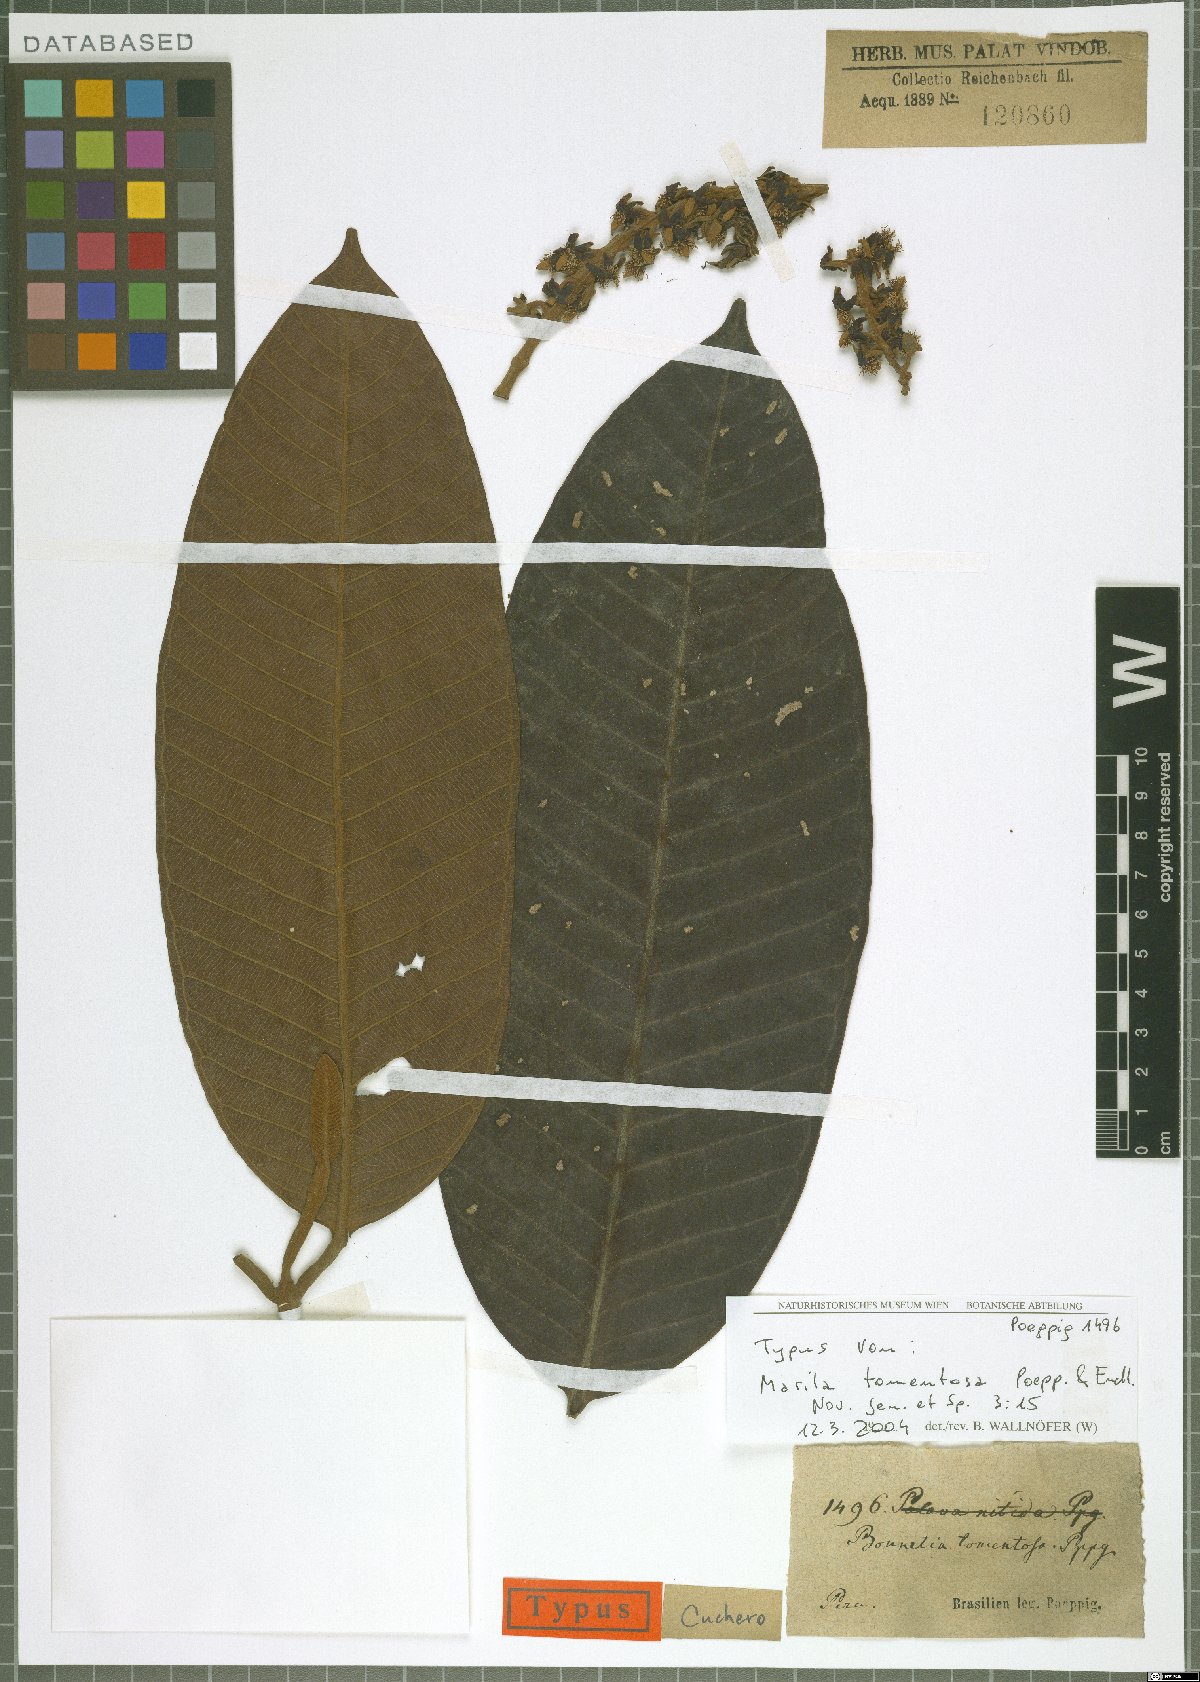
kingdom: Plantae
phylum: Tracheophyta
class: Magnoliopsida
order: Malpighiales
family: Calophyllaceae
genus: Marila
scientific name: Marila tomentosa
